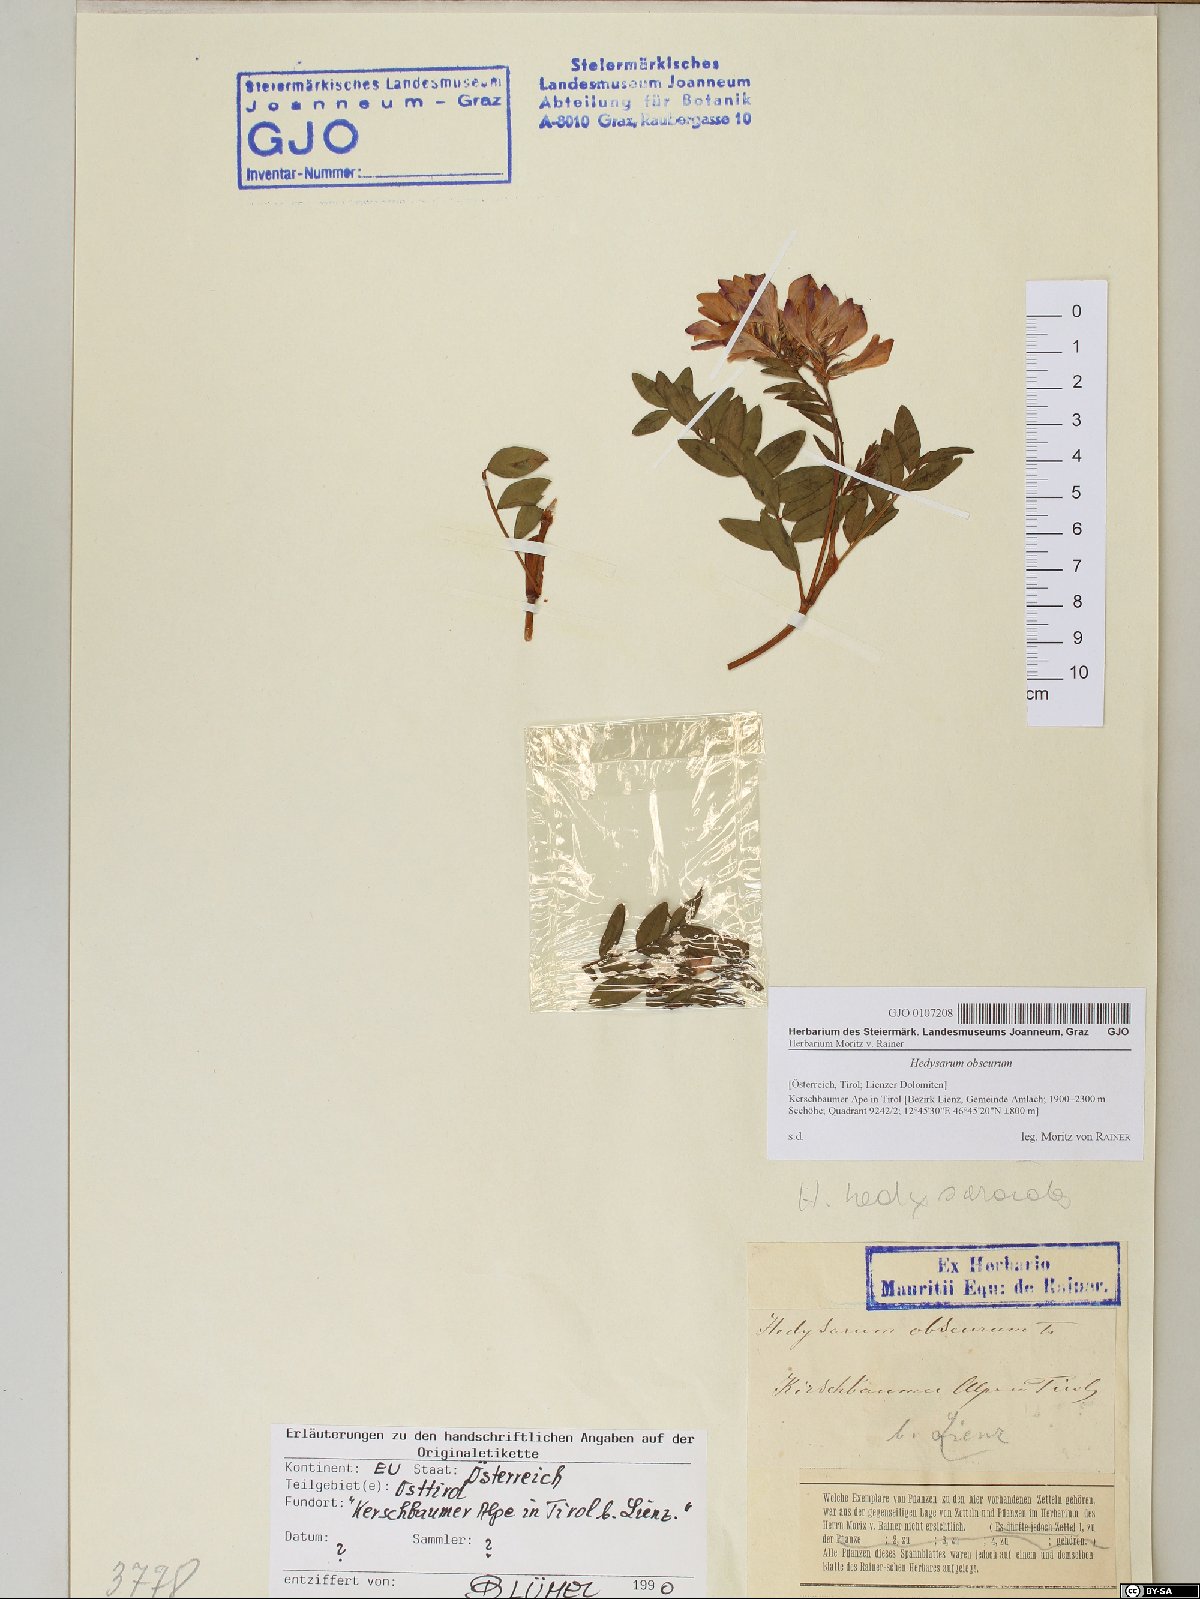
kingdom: Plantae
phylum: Tracheophyta
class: Magnoliopsida
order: Fabales
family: Fabaceae
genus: Hedysarum
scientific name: Hedysarum hedysaroides
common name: Alpine french-honeysuckle
